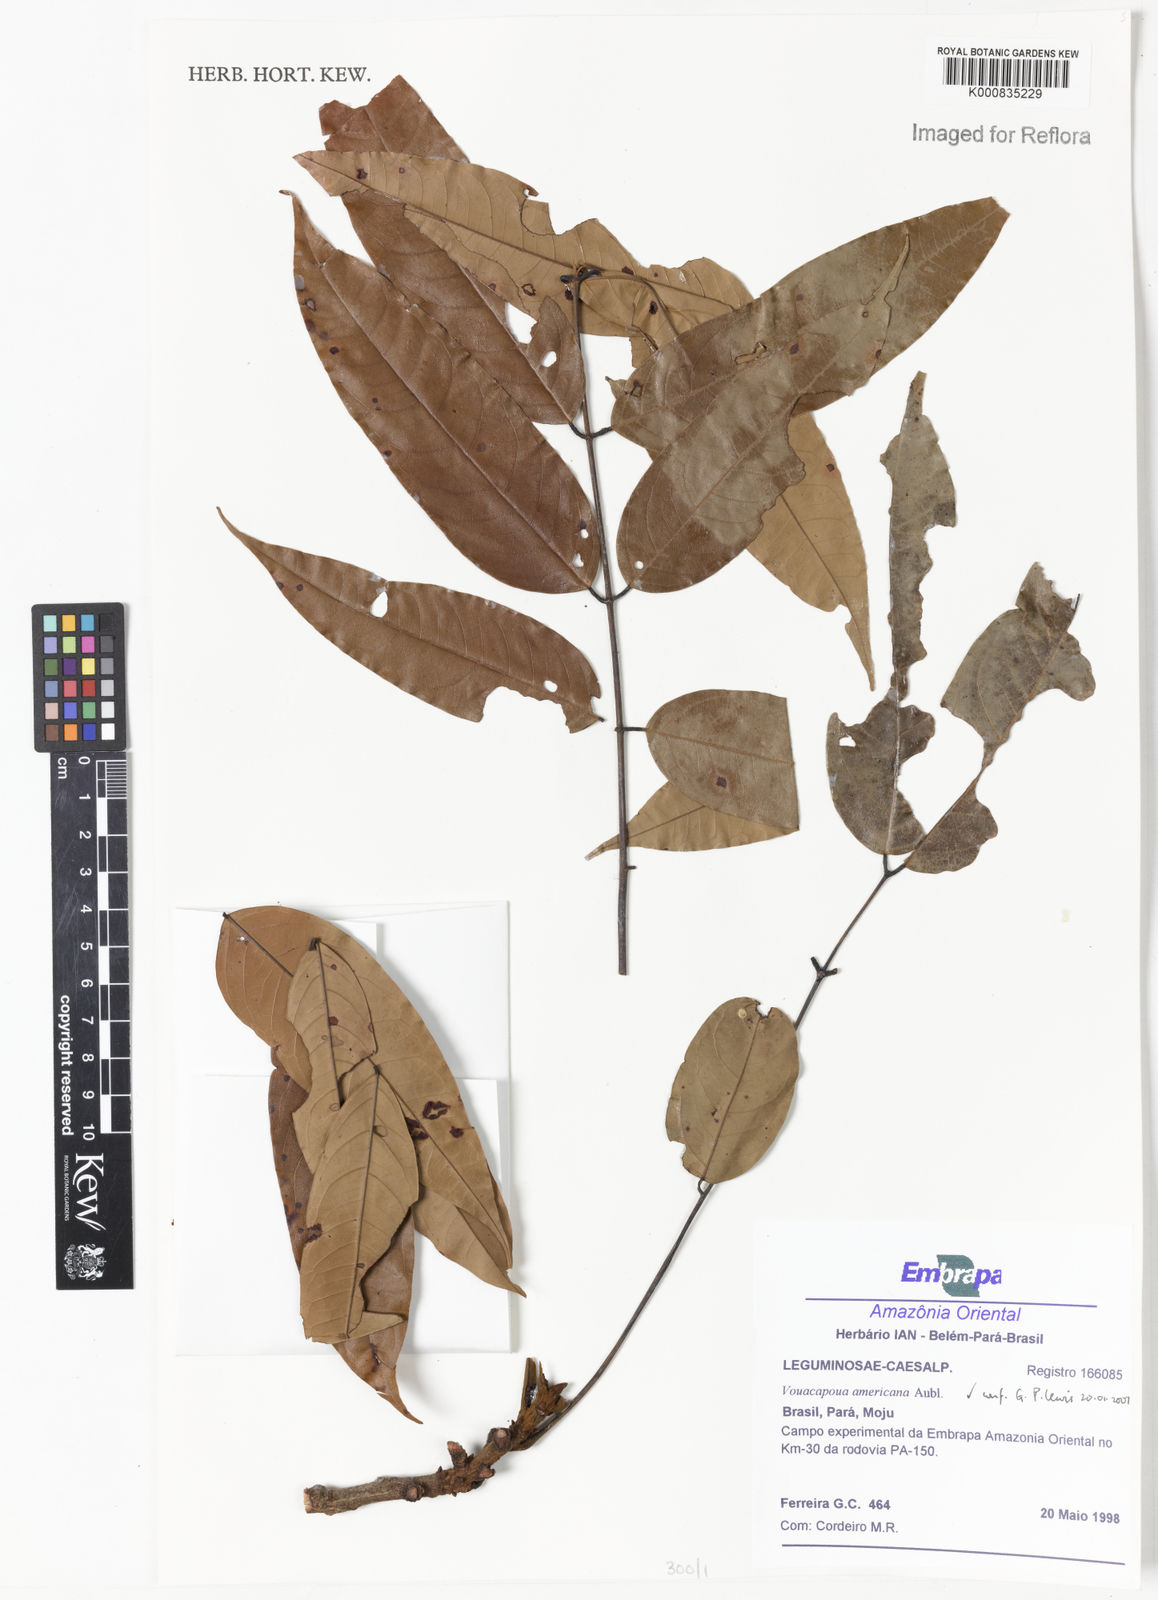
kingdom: Plantae
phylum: Tracheophyta
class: Magnoliopsida
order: Fabales
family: Fabaceae
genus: Vouacapoua
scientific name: Vouacapoua americana
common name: Partridgewood
